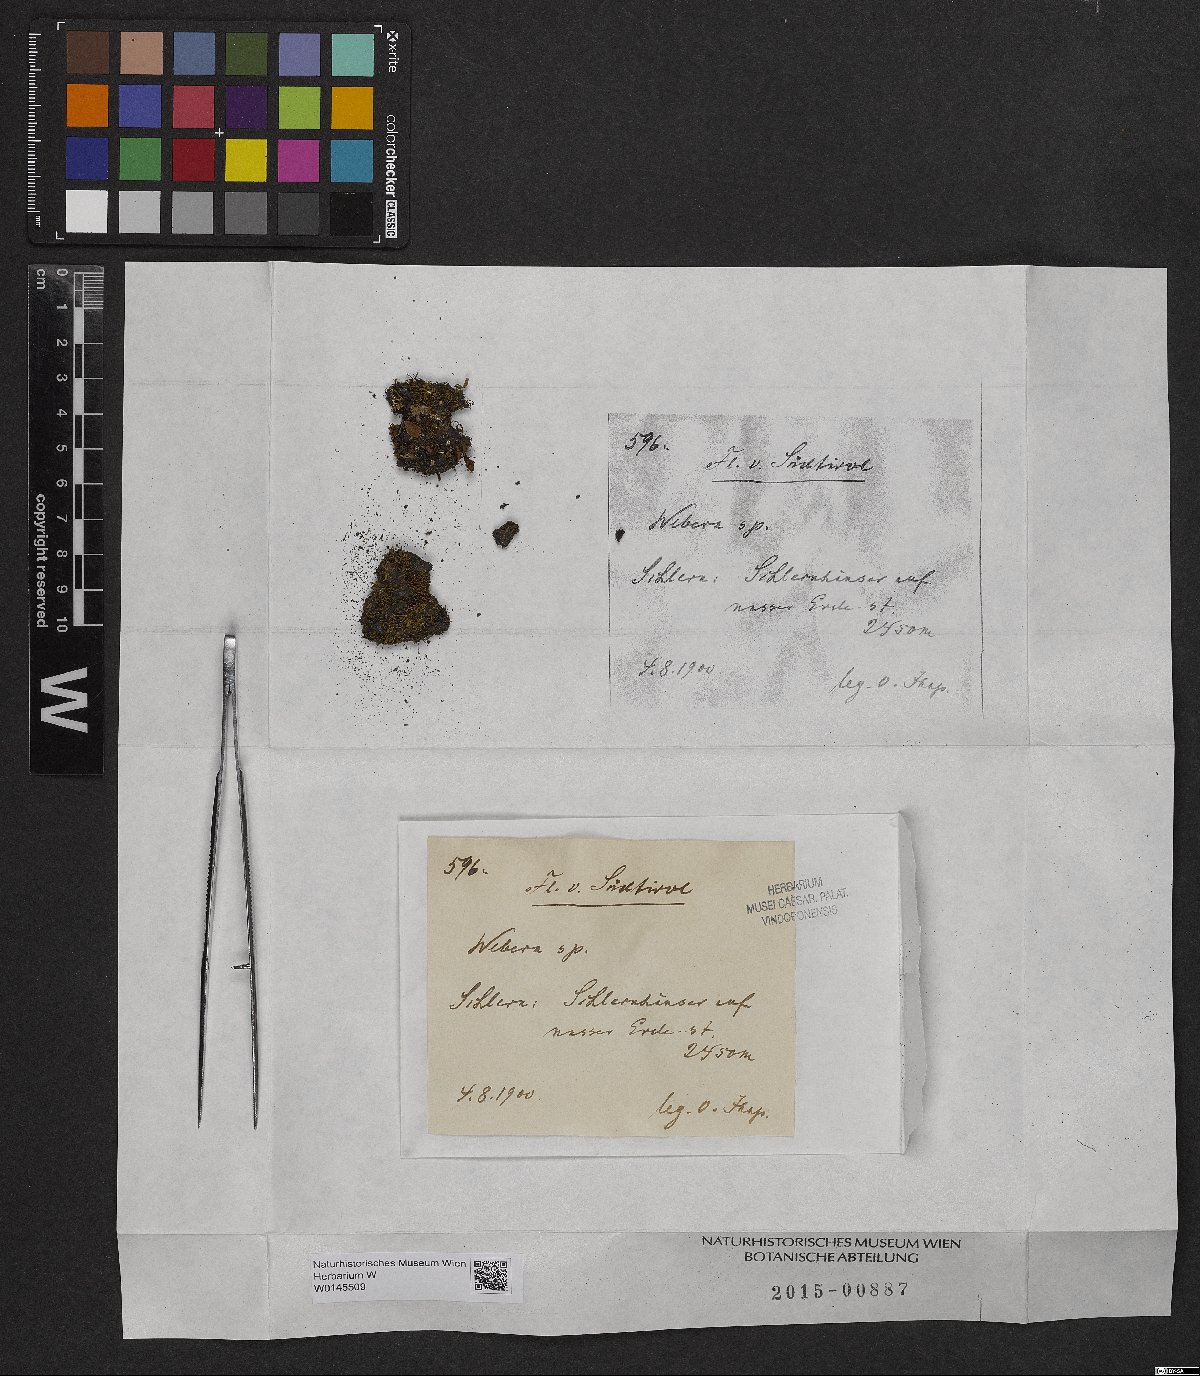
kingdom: Plantae
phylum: Tracheophyta
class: Magnoliopsida
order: Gentianales
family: Rubiaceae
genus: Webera
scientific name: Webera
